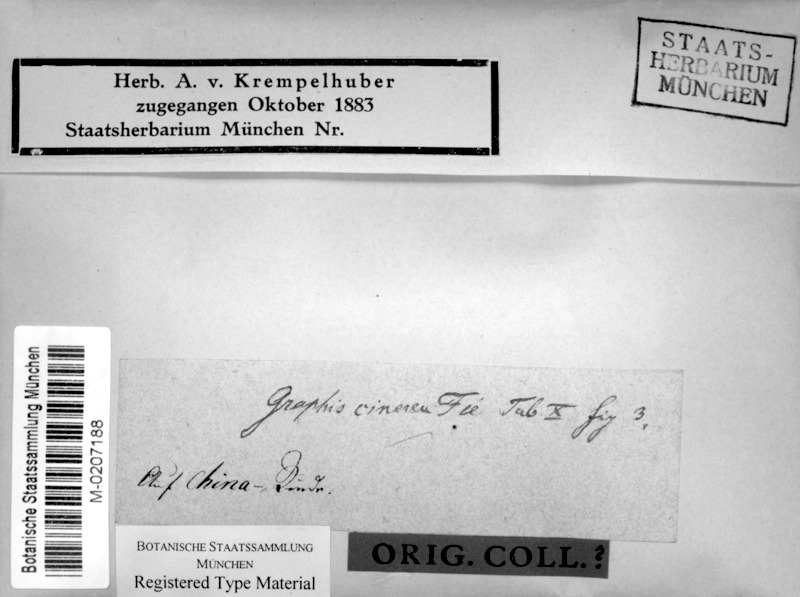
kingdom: Fungi
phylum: Ascomycota
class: Lecanoromycetes
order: Ostropales
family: Graphidaceae
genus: Allographa
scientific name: Allographa cinerea
